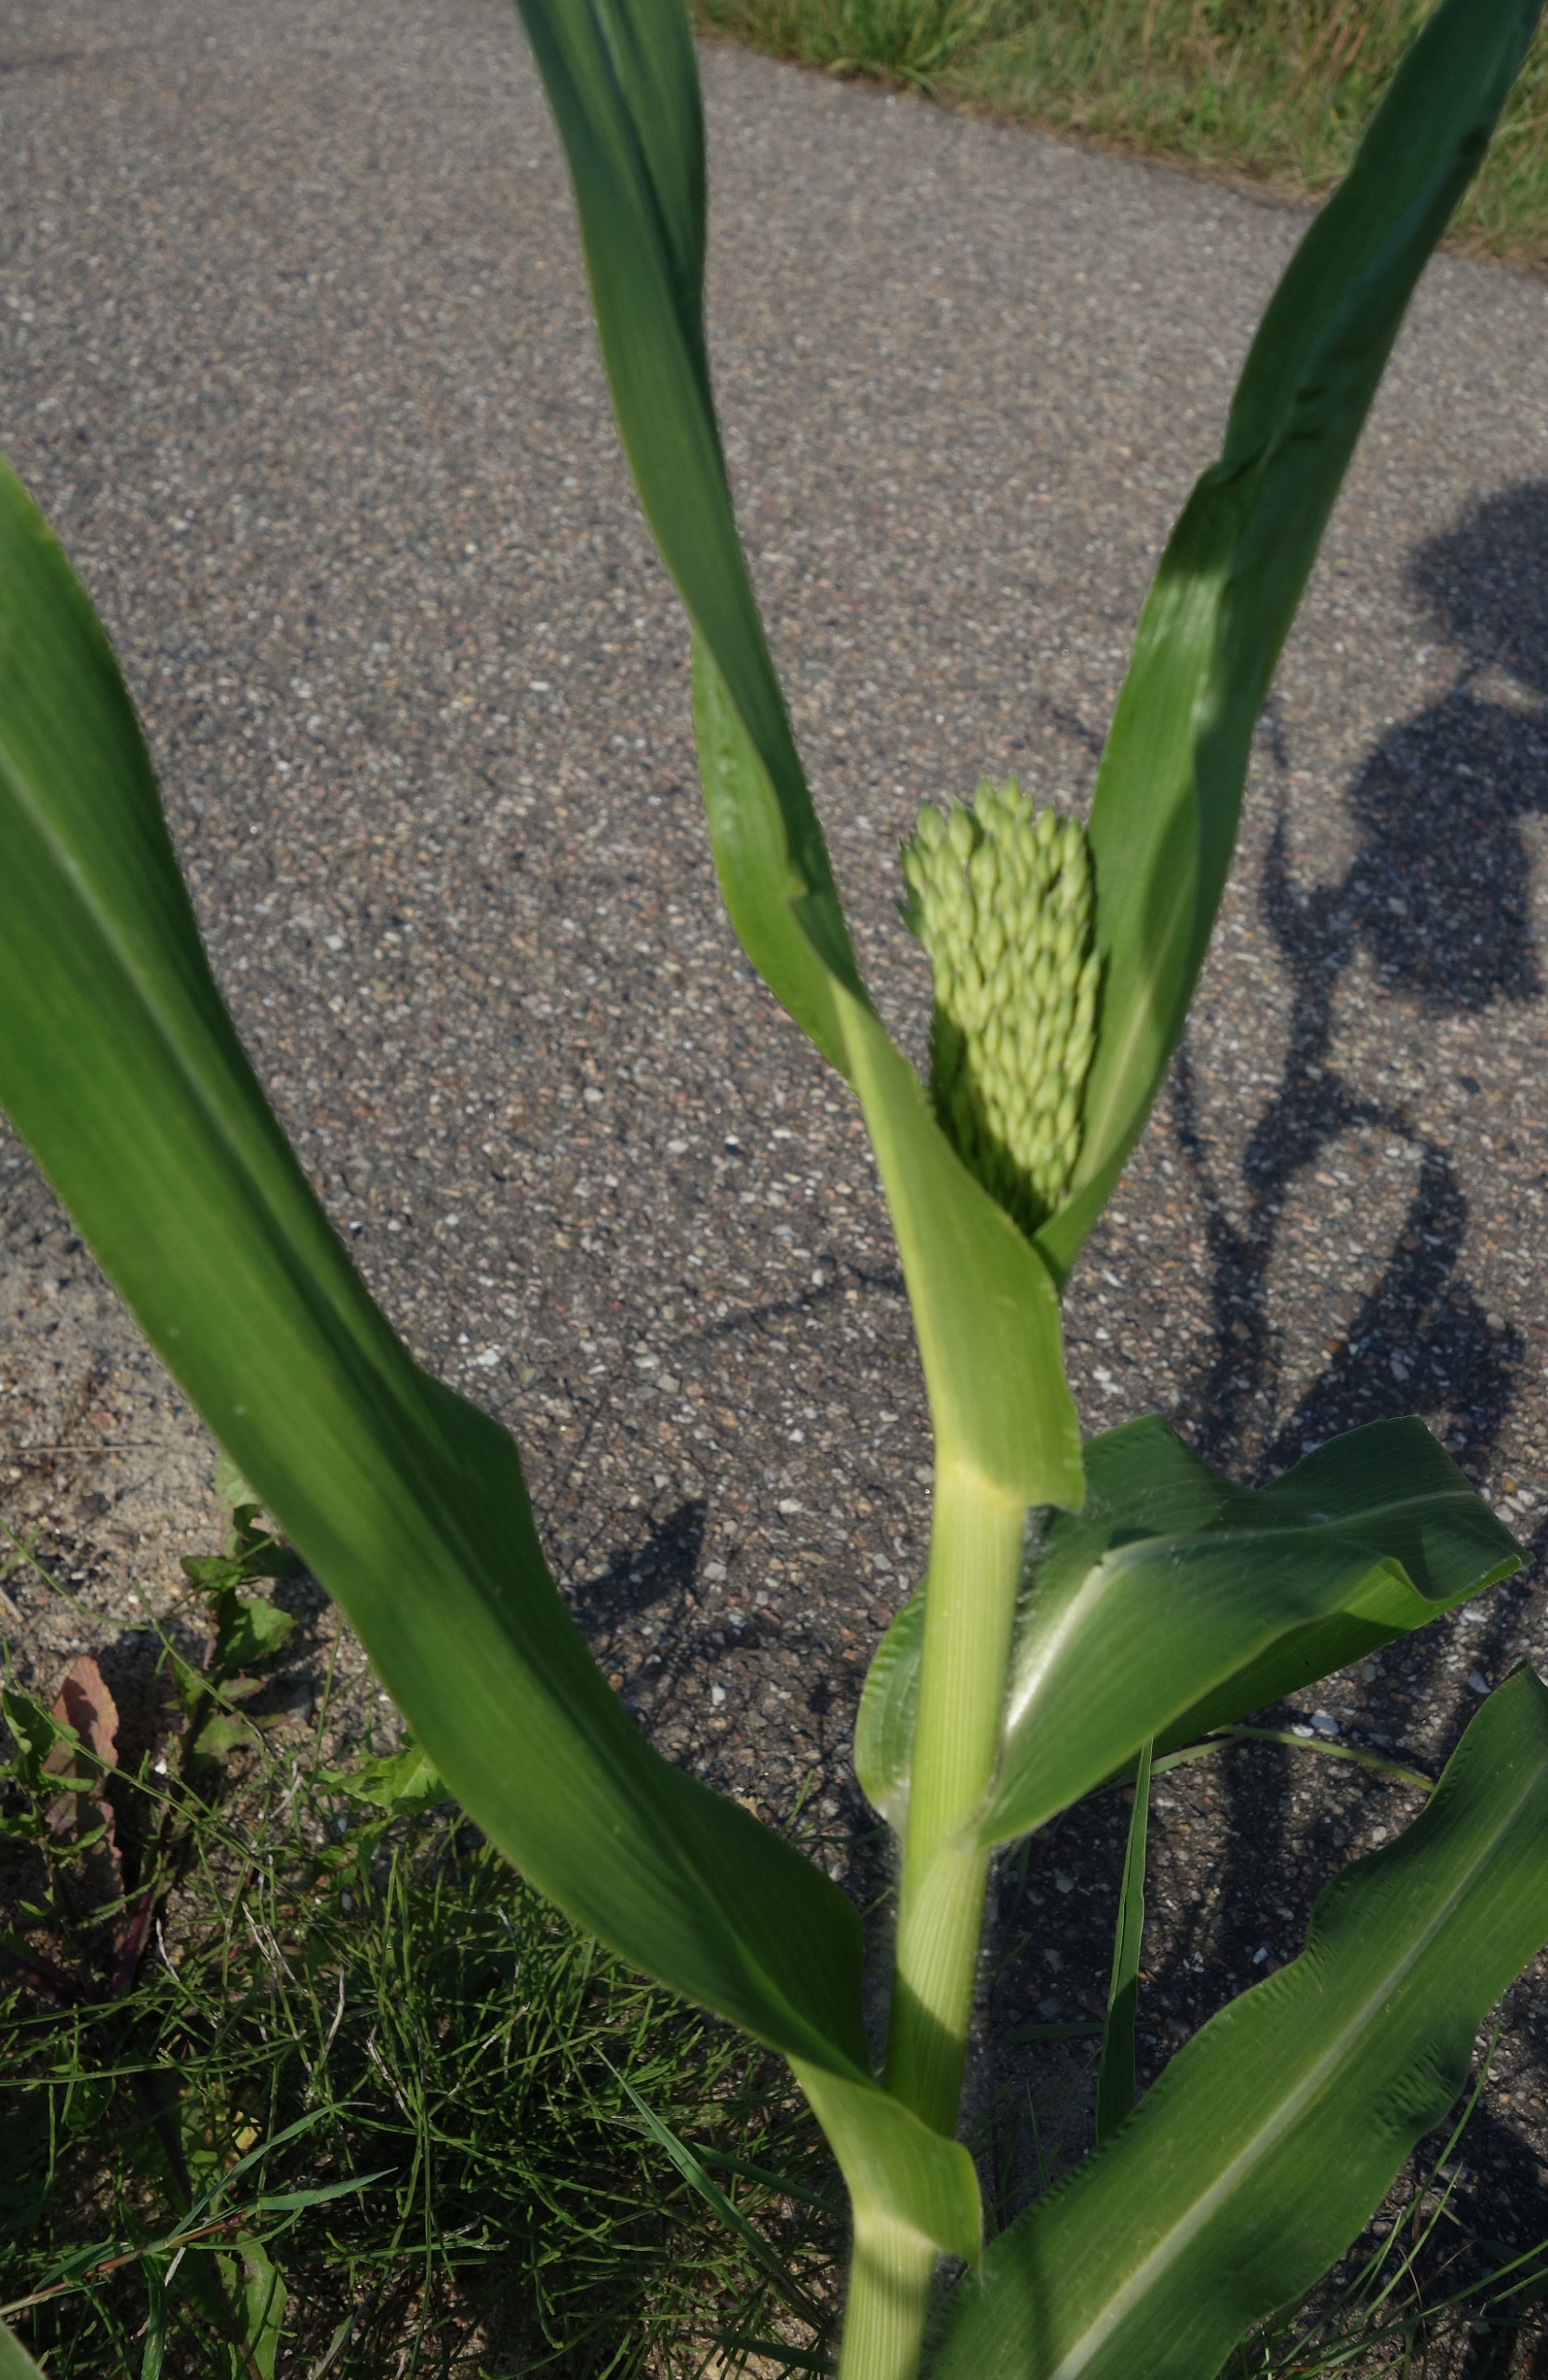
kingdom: Plantae
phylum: Tracheophyta
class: Liliopsida
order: Poales
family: Poaceae
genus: Panicum
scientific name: Panicum miliaceum
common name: Almindelig hirse
